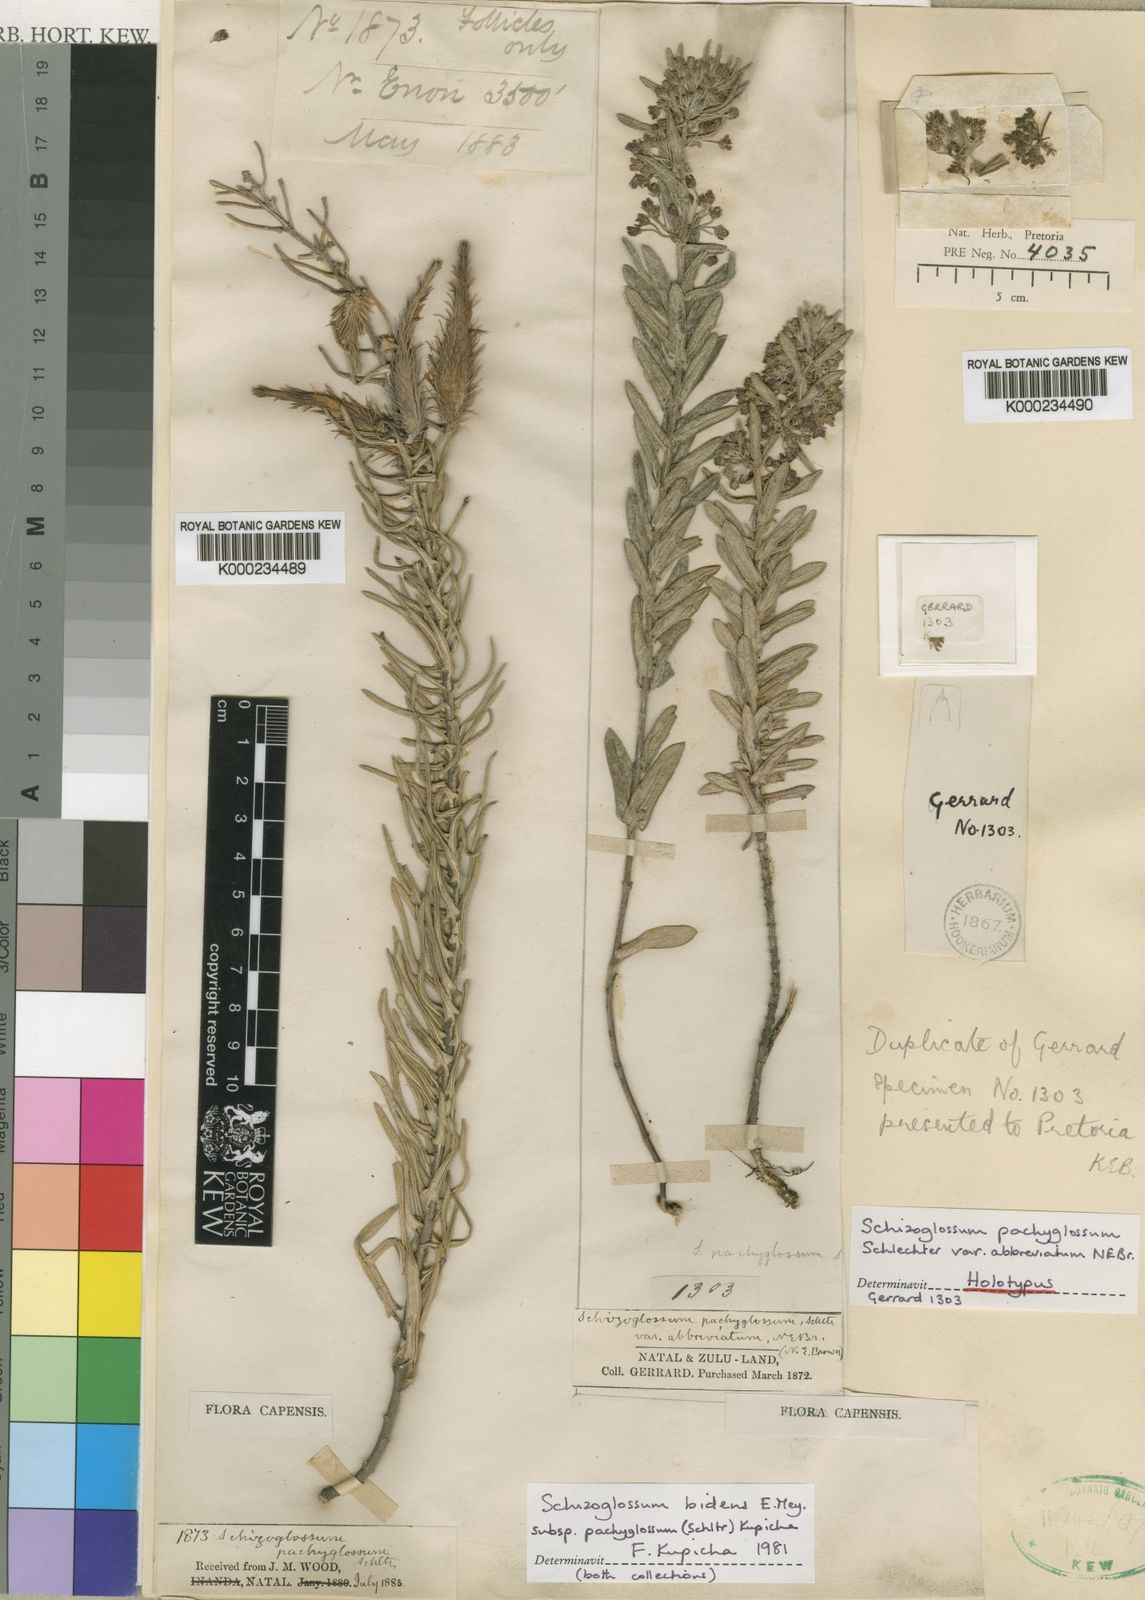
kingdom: Plantae
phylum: Tracheophyta
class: Magnoliopsida
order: Gentianales
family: Apocynaceae
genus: Schizoglossum
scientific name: Schizoglossum bidens
